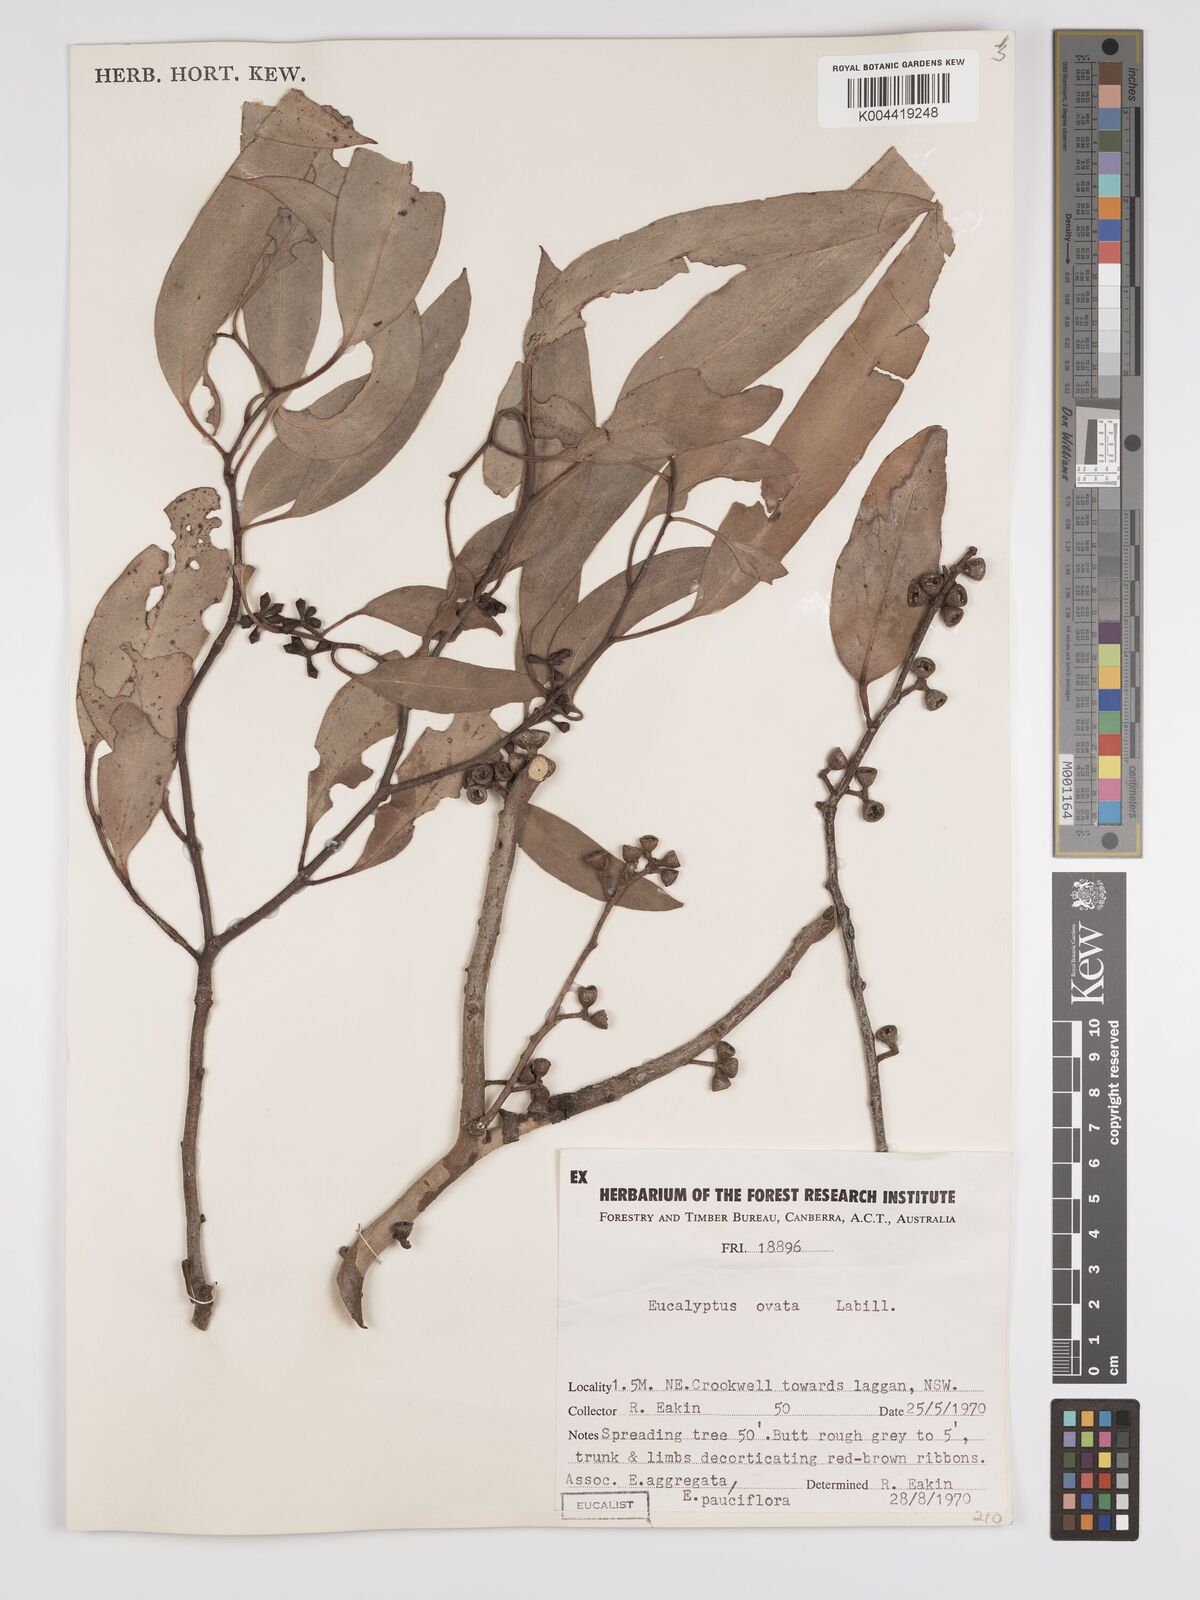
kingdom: Plantae
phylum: Tracheophyta
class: Magnoliopsida
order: Myrtales
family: Myrtaceae
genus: Eucalyptus
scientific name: Eucalyptus ovata
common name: Black-gum
